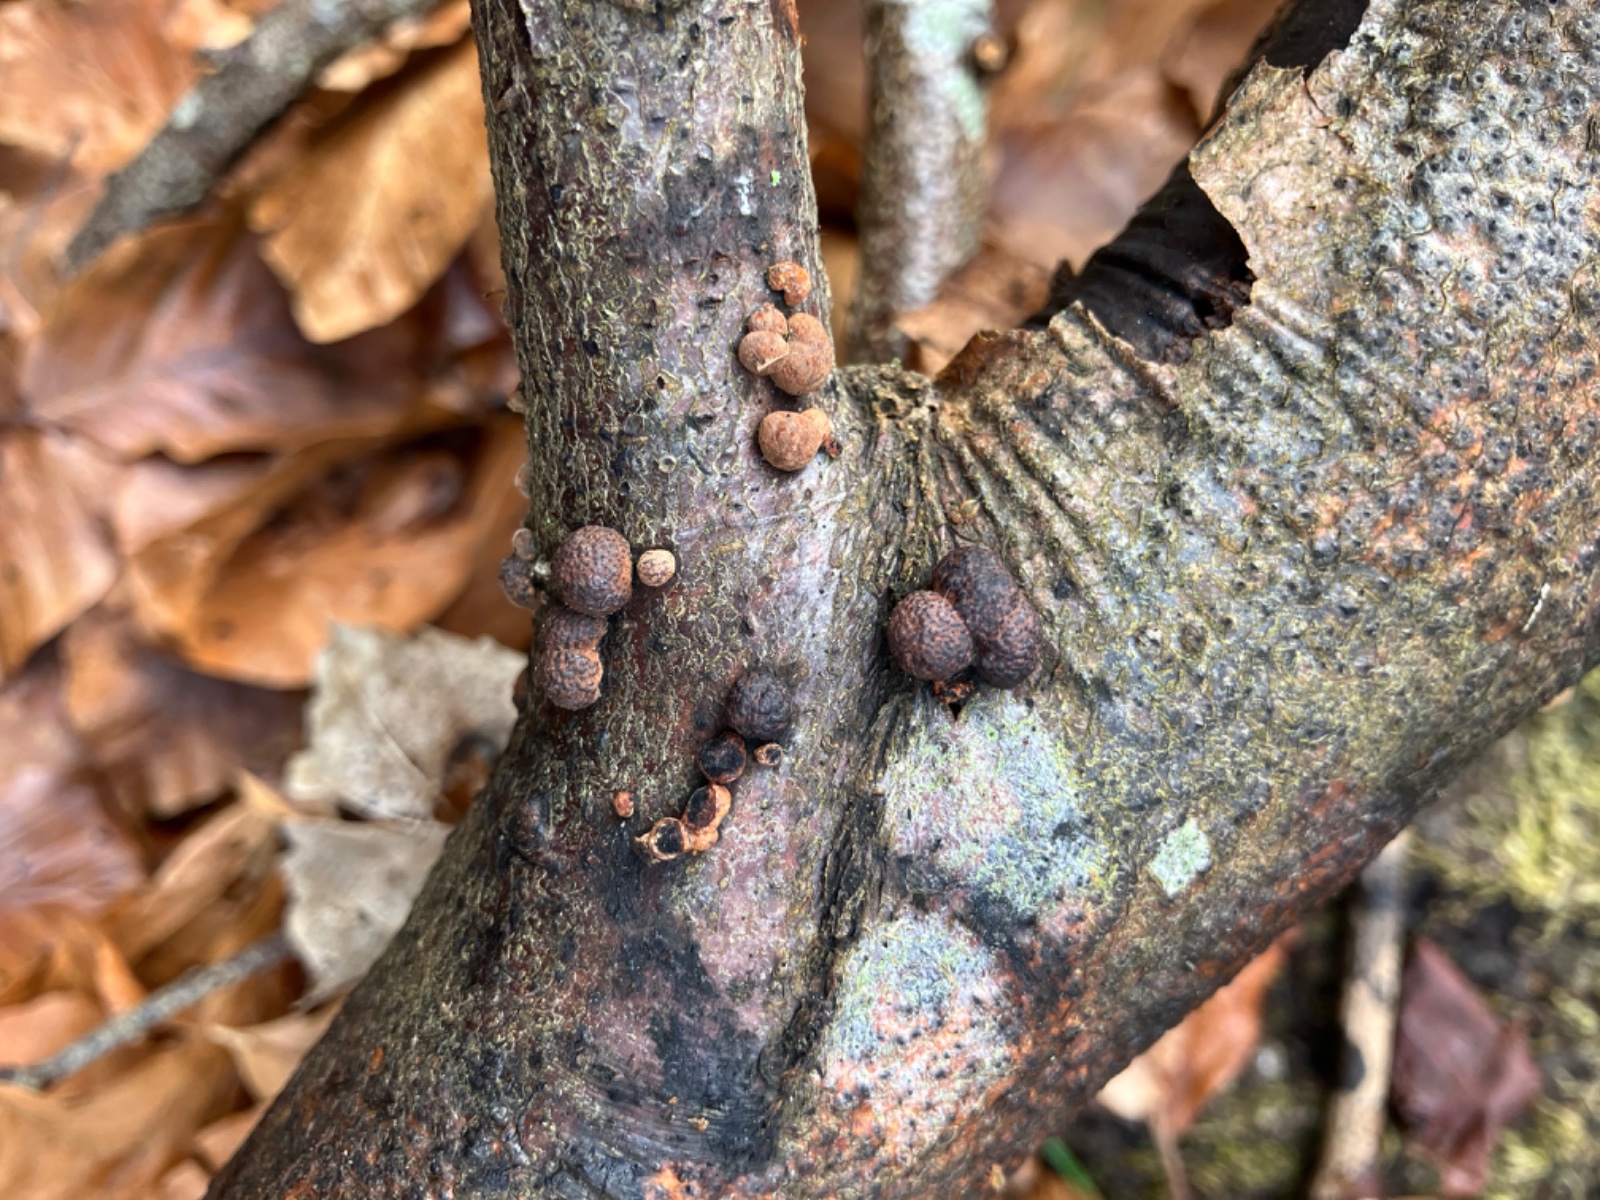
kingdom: Fungi
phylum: Ascomycota
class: Sordariomycetes
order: Xylariales
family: Hypoxylaceae
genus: Hypoxylon
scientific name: Hypoxylon fragiforme
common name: kuljordbær
